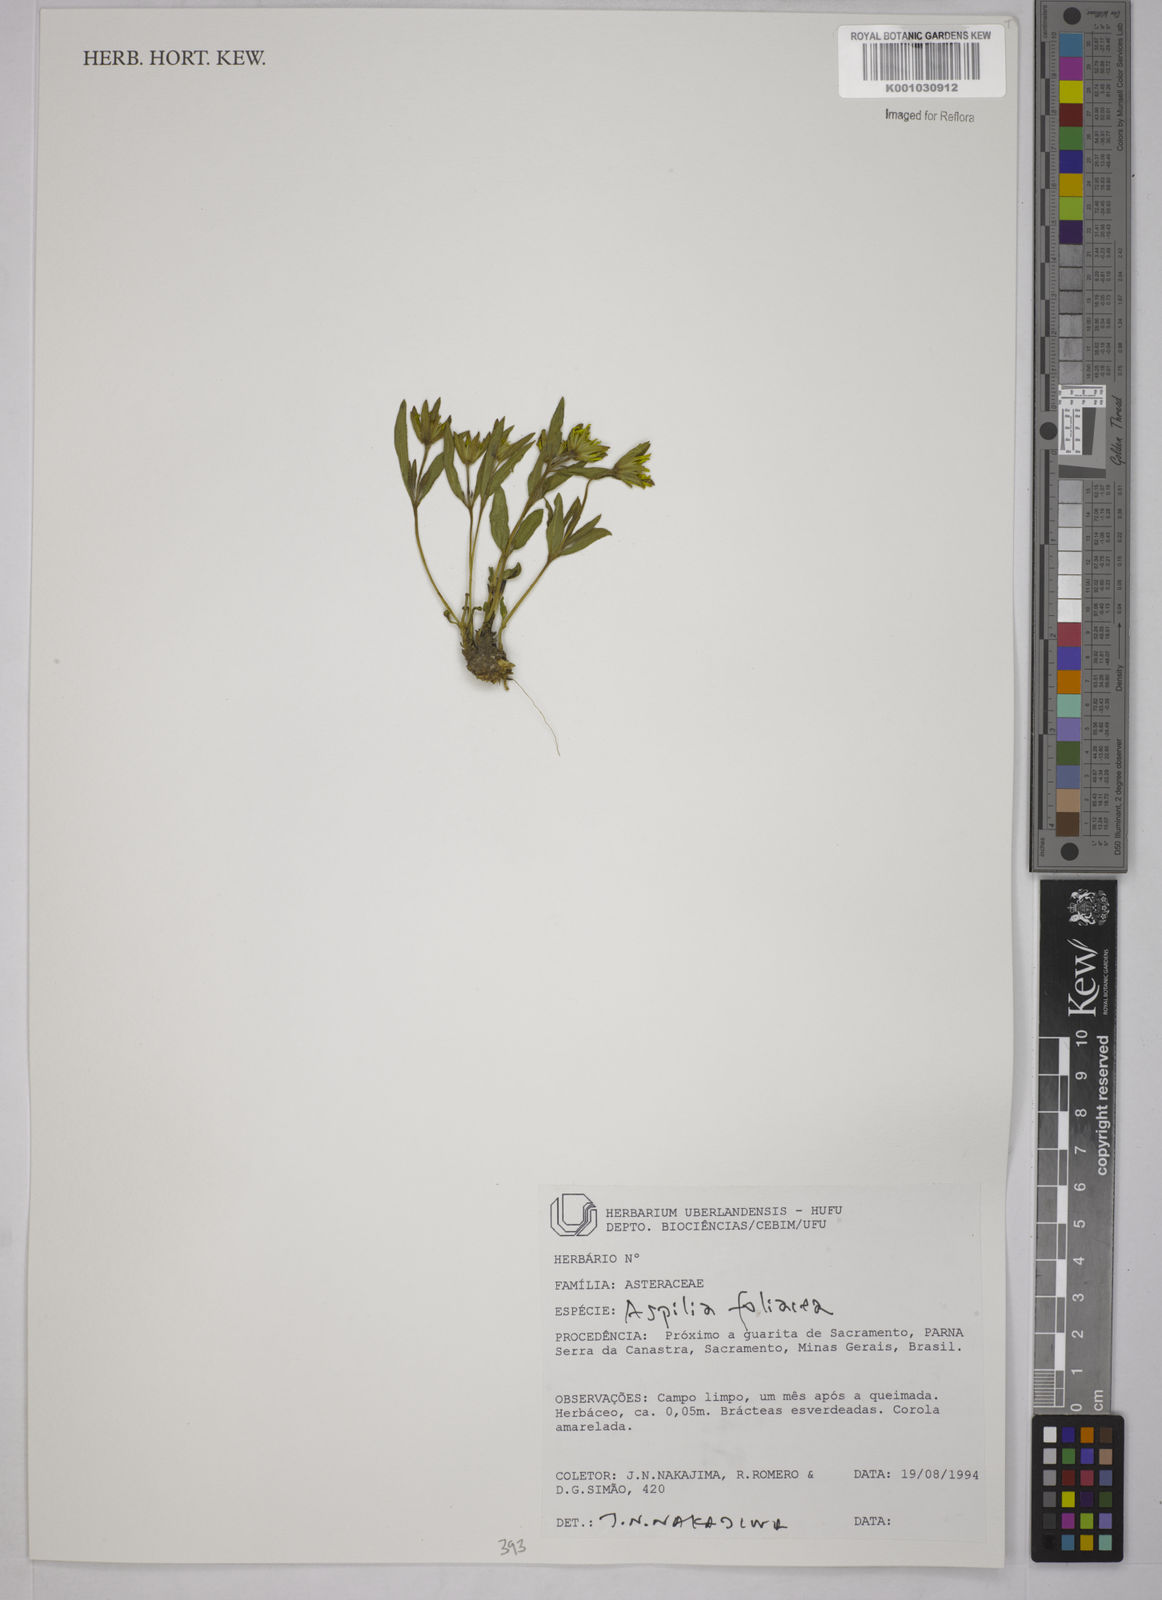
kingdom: Plantae
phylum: Tracheophyta
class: Magnoliopsida
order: Asterales
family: Asteraceae
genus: Wedelia
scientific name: Wedelia foliacea
